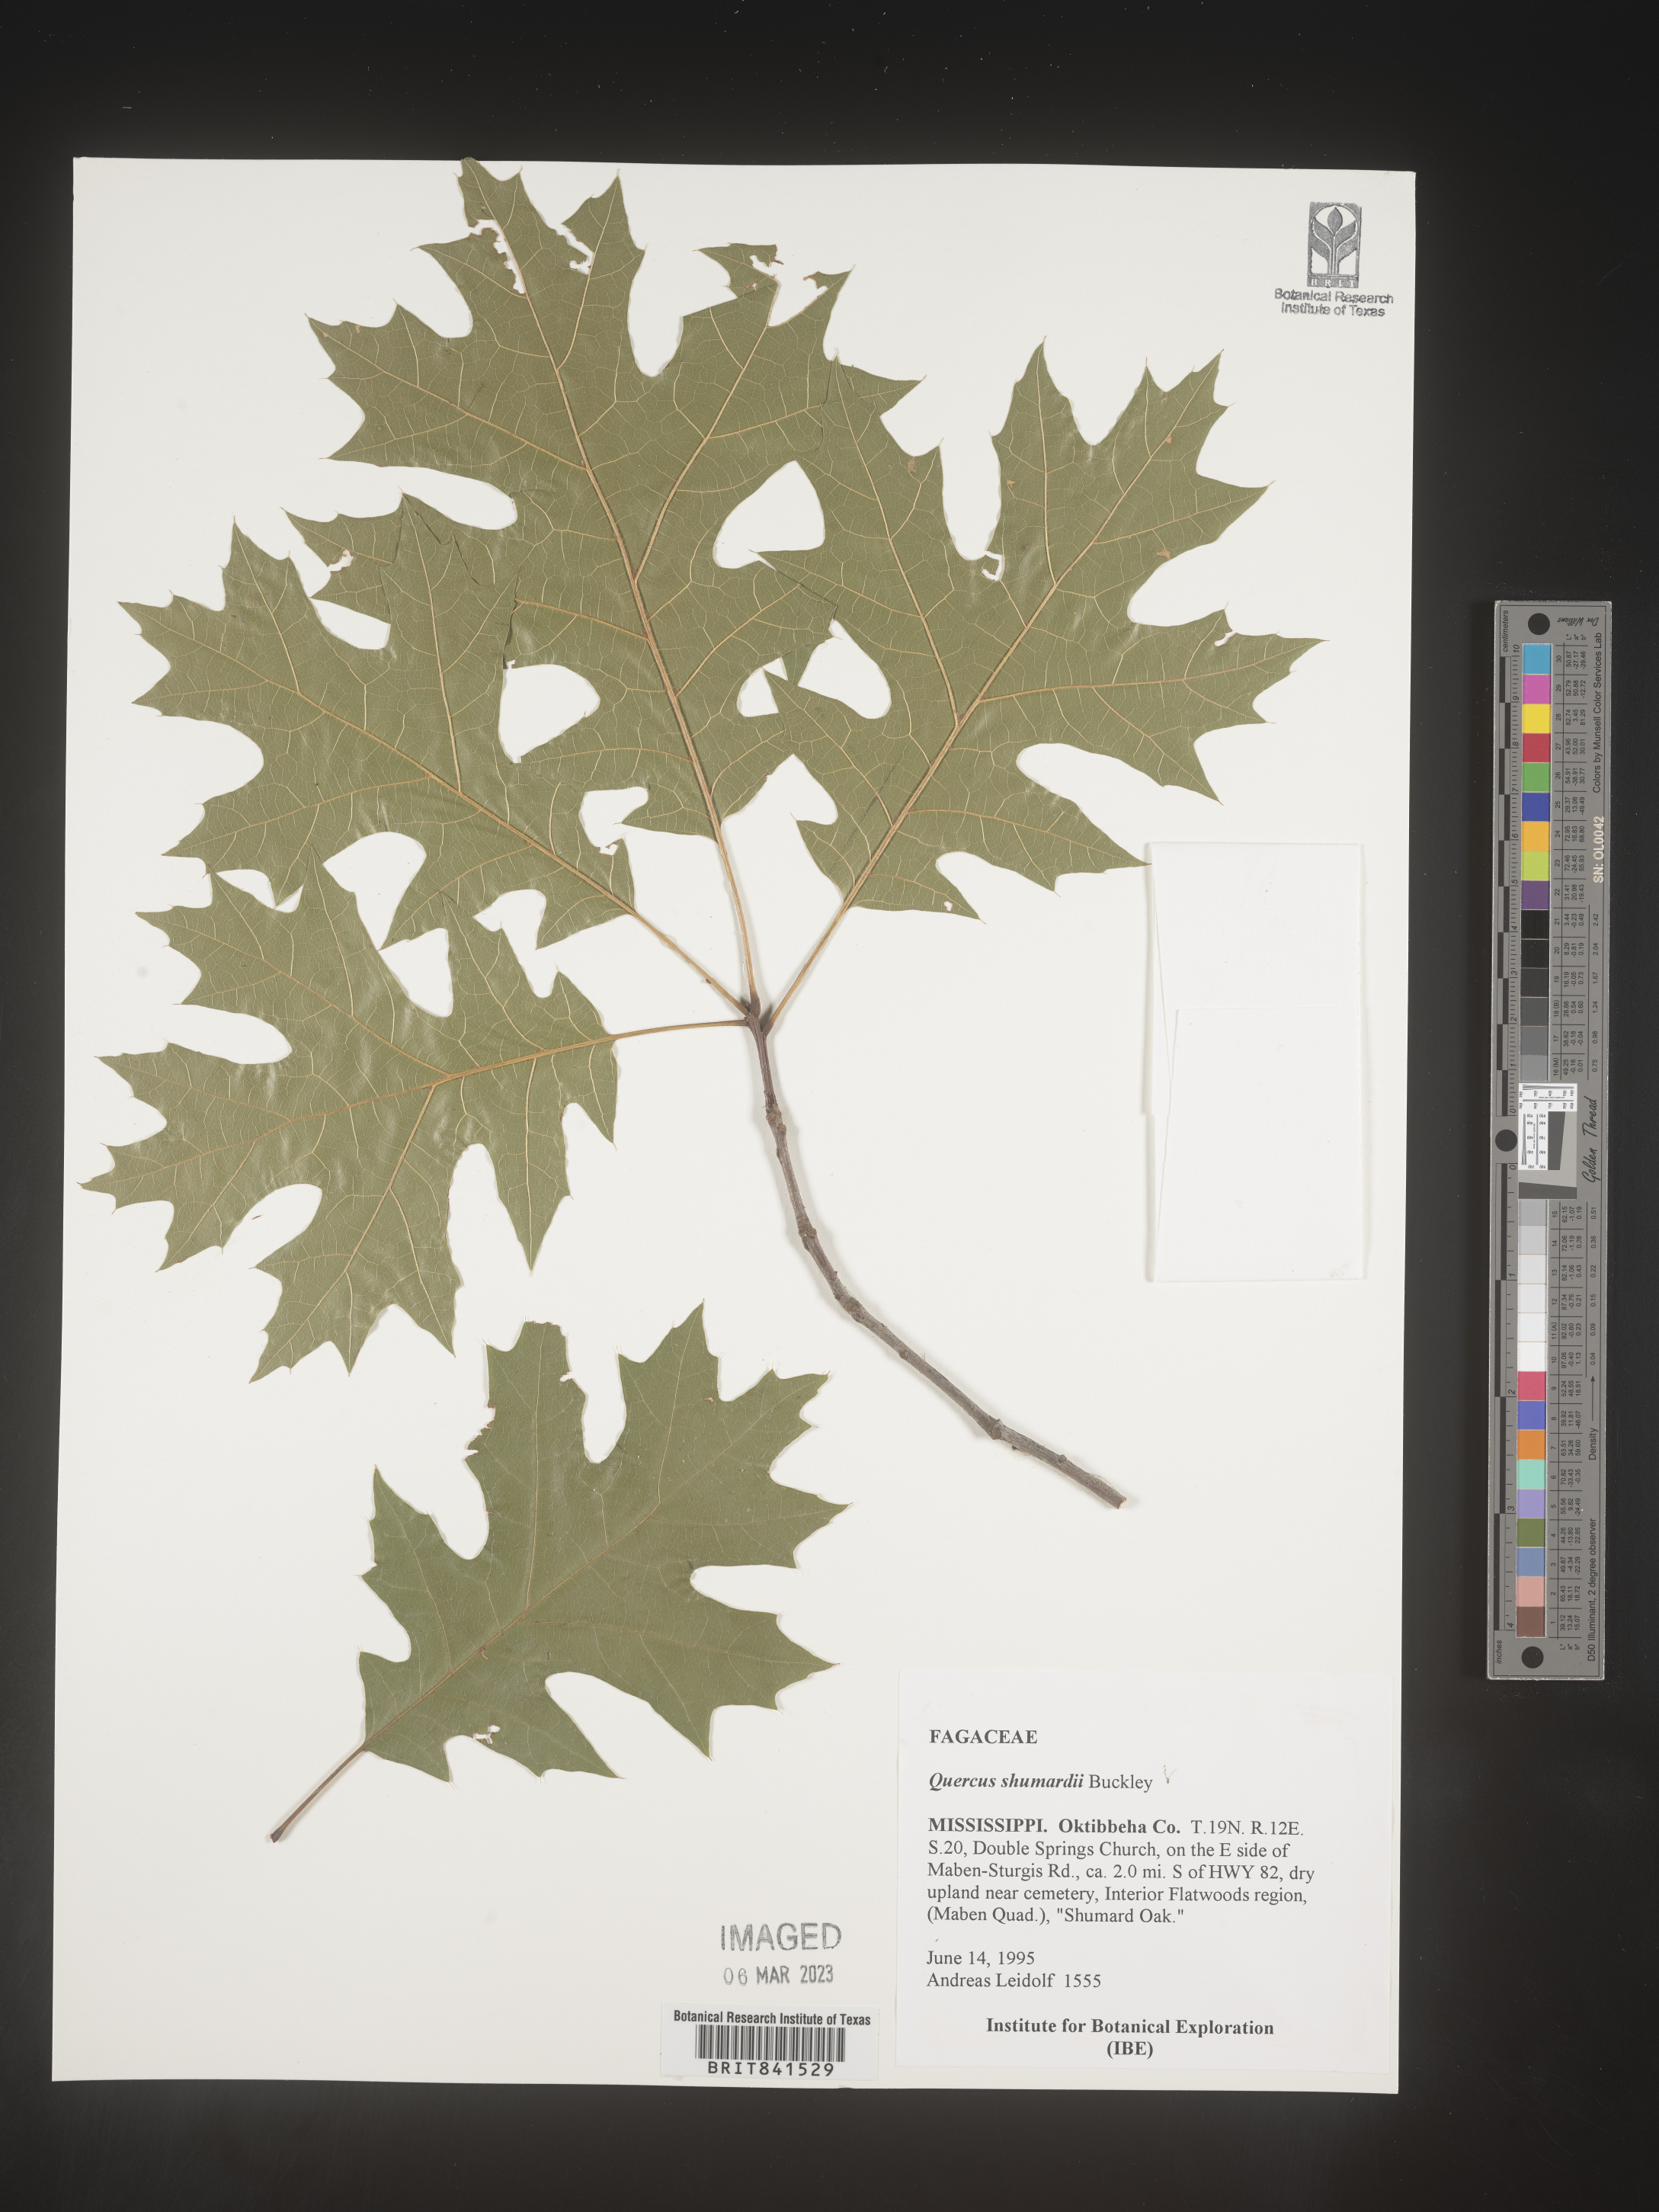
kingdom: Plantae
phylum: Tracheophyta
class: Magnoliopsida
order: Fagales
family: Fagaceae
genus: Quercus
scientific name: Quercus shumardii
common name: Shumard oak
